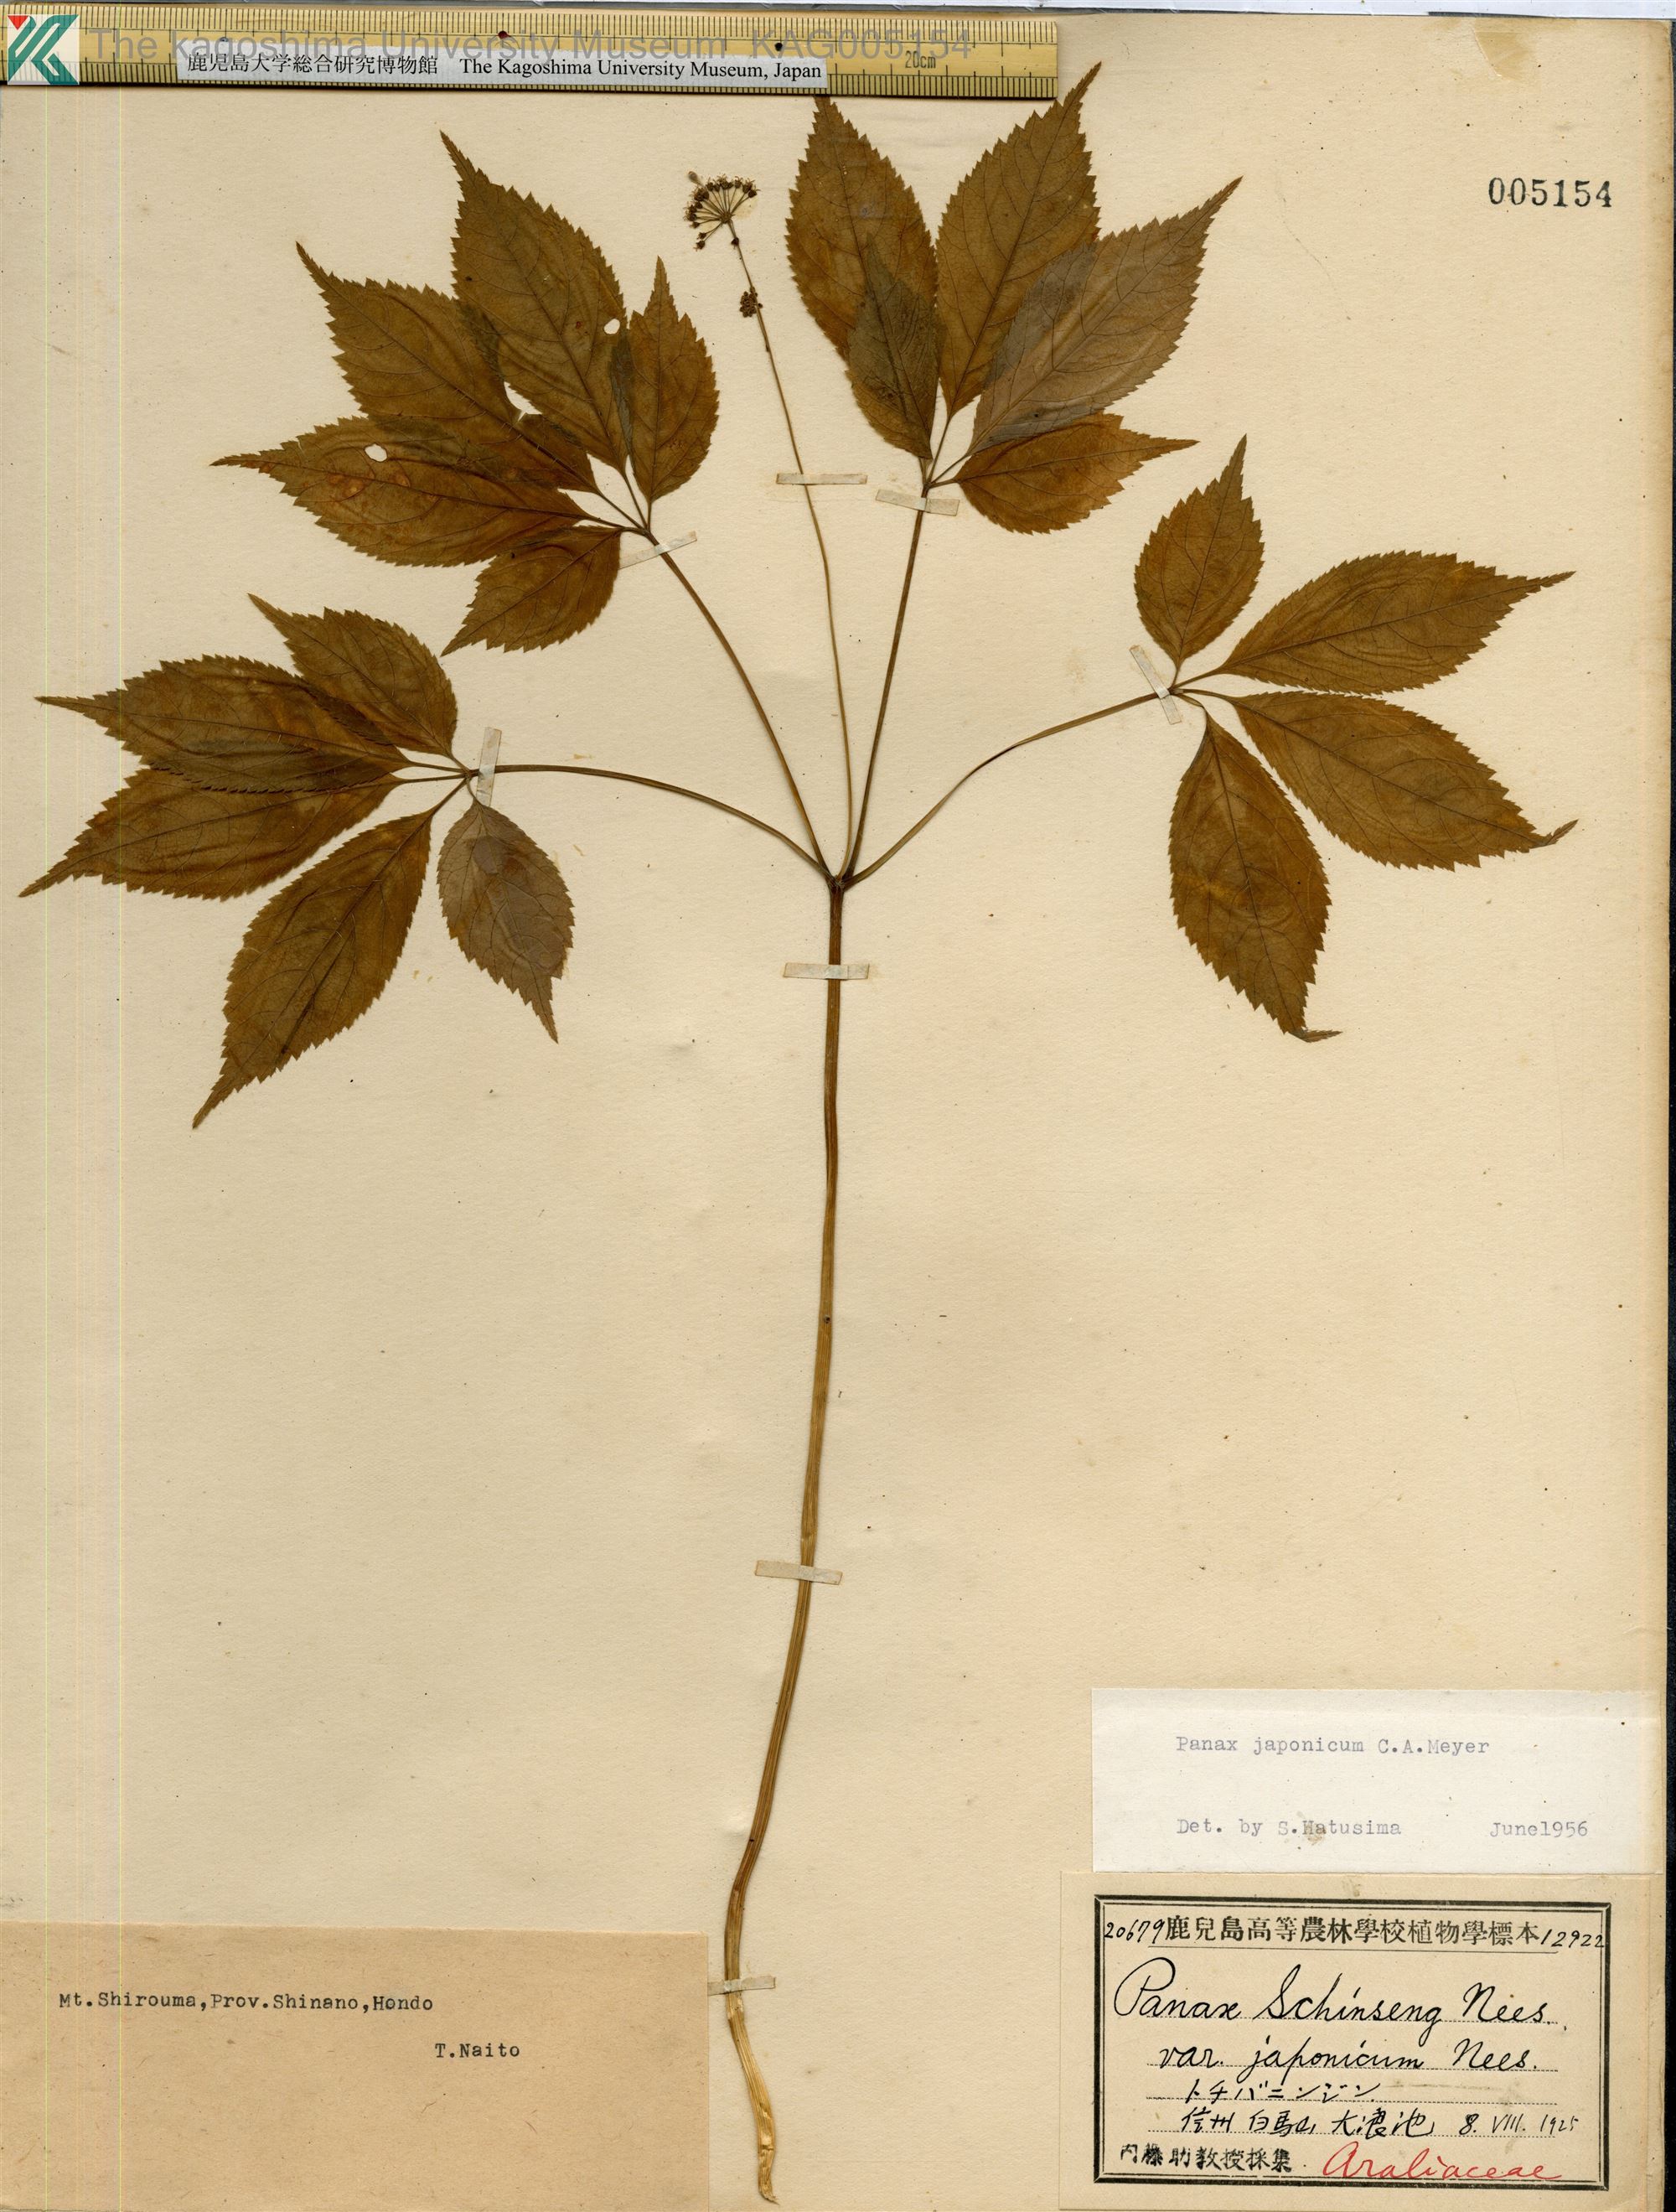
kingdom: Plantae
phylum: Tracheophyta
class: Magnoliopsida
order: Apiales
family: Araliaceae
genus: Panax
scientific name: Panax japonicus
